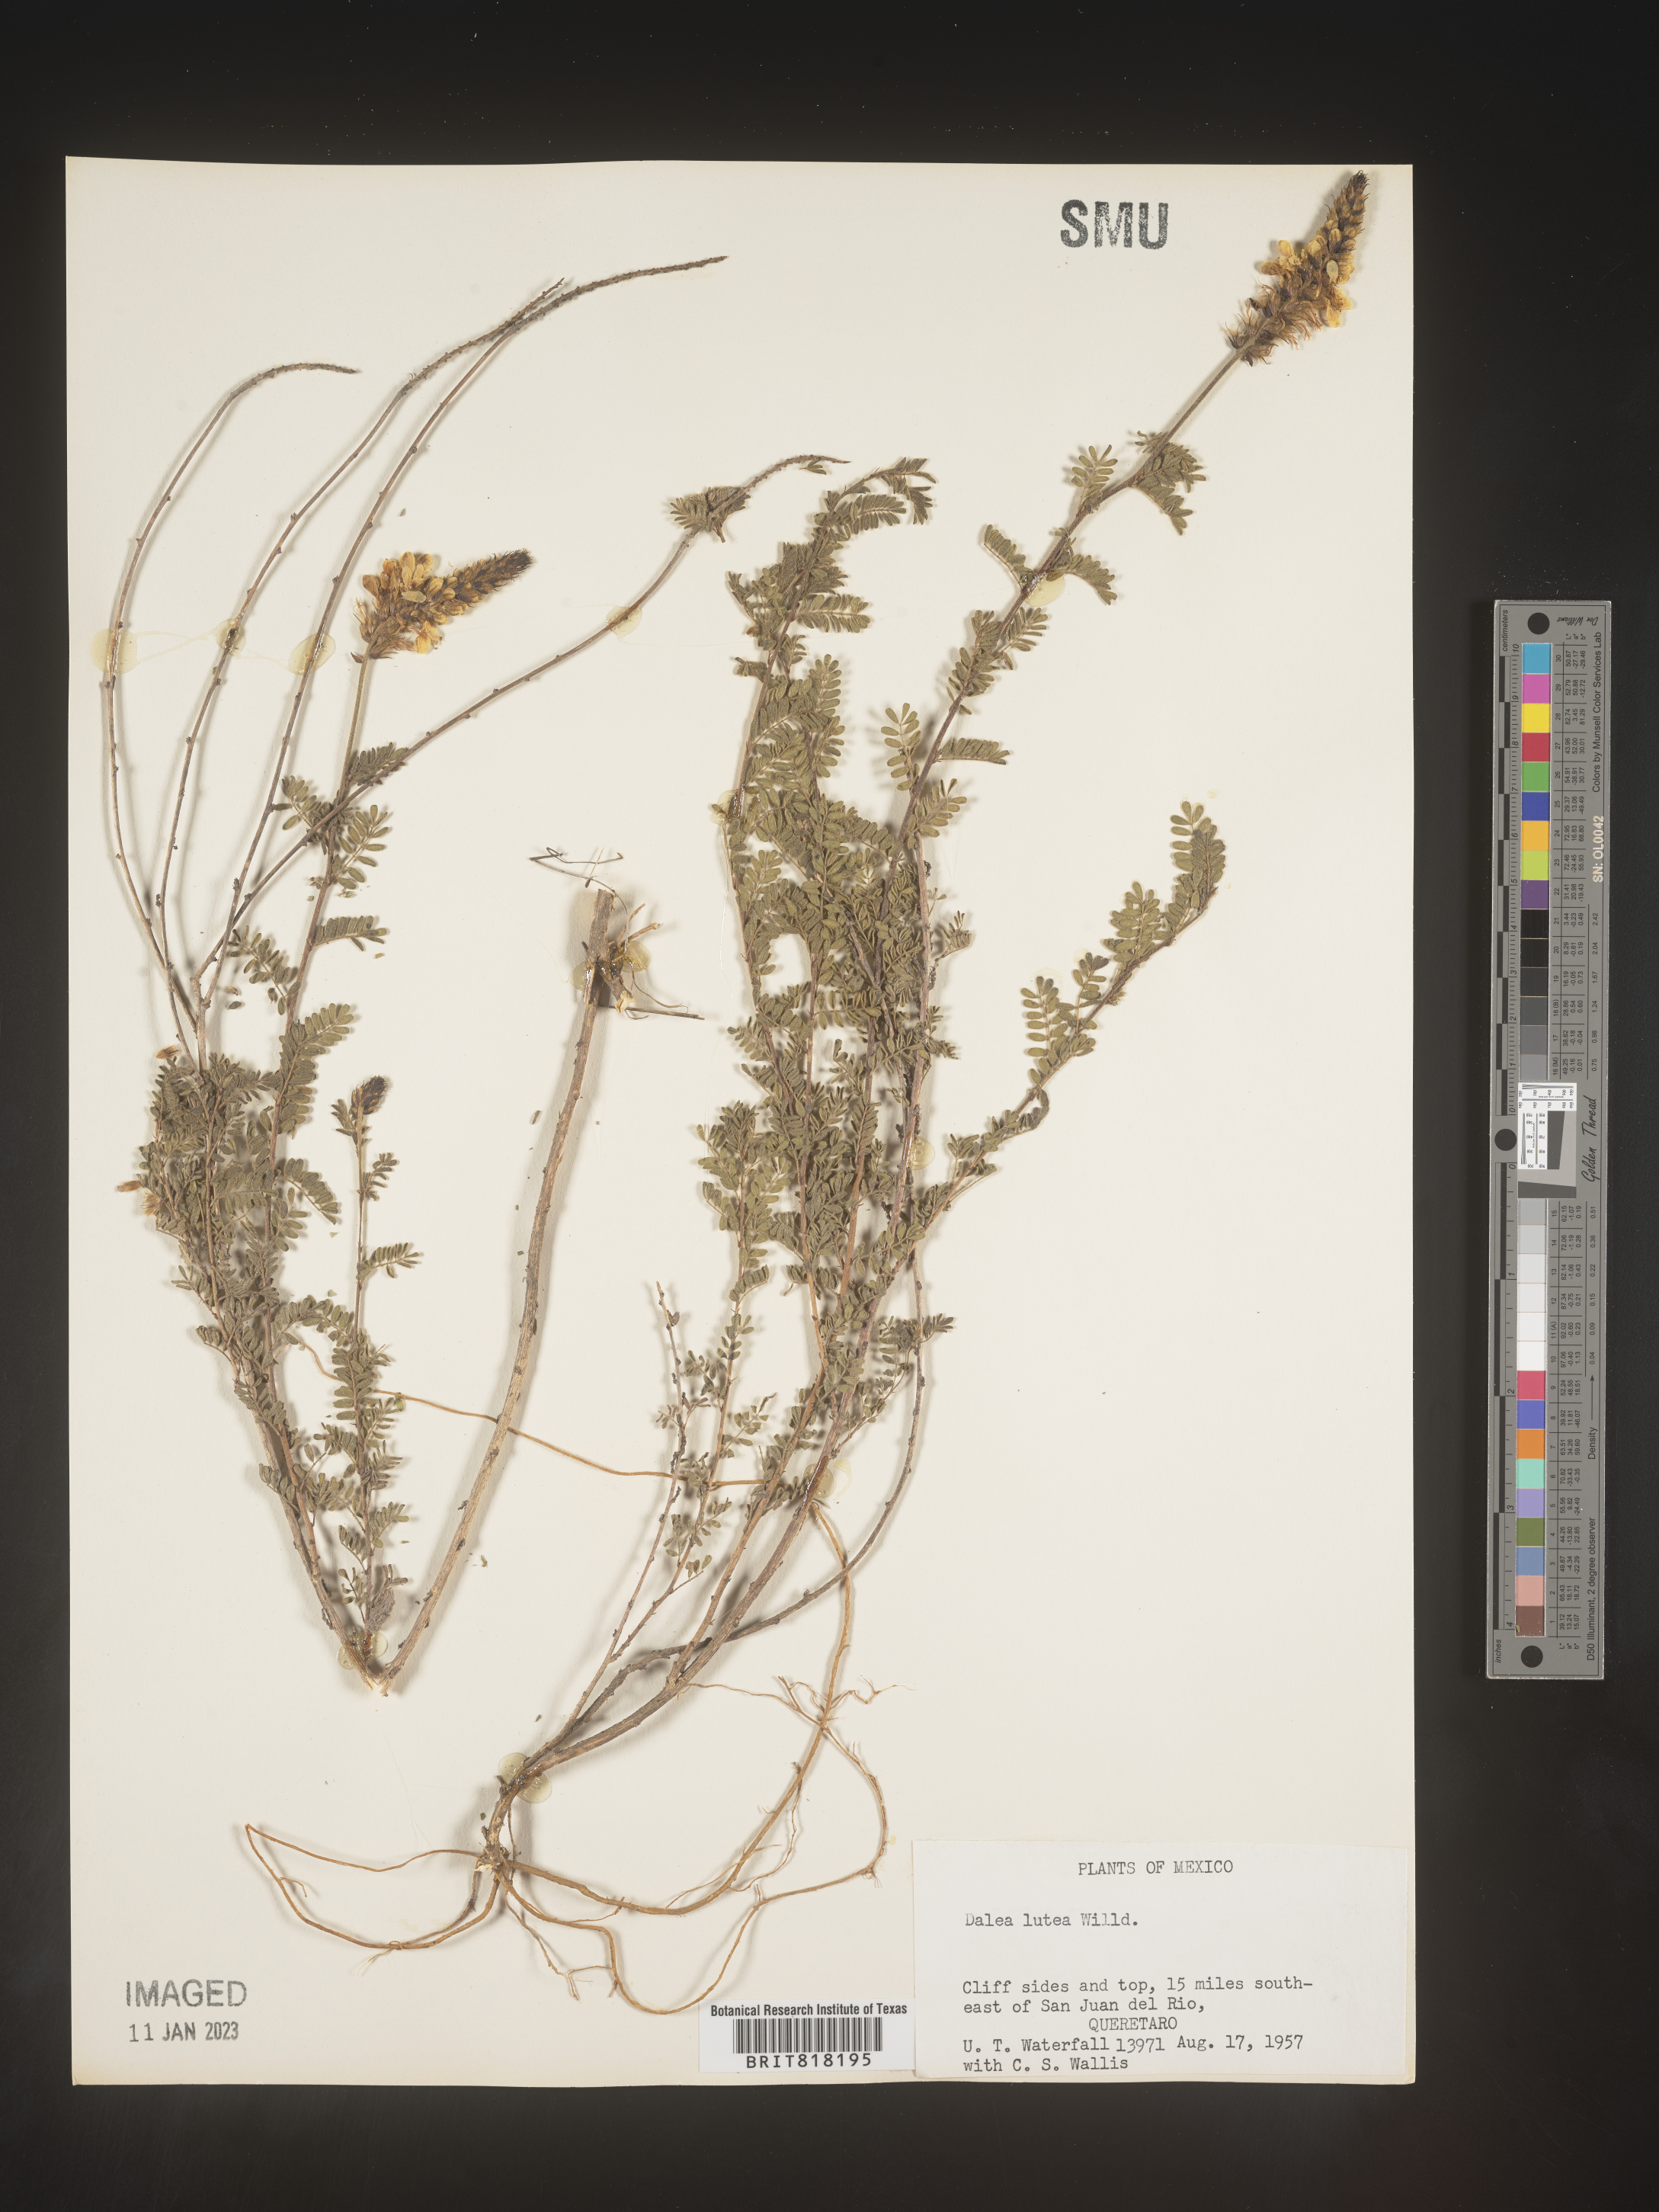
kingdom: Plantae
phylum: Tracheophyta
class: Magnoliopsida
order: Fabales
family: Fabaceae
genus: Dalea
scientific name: Dalea
